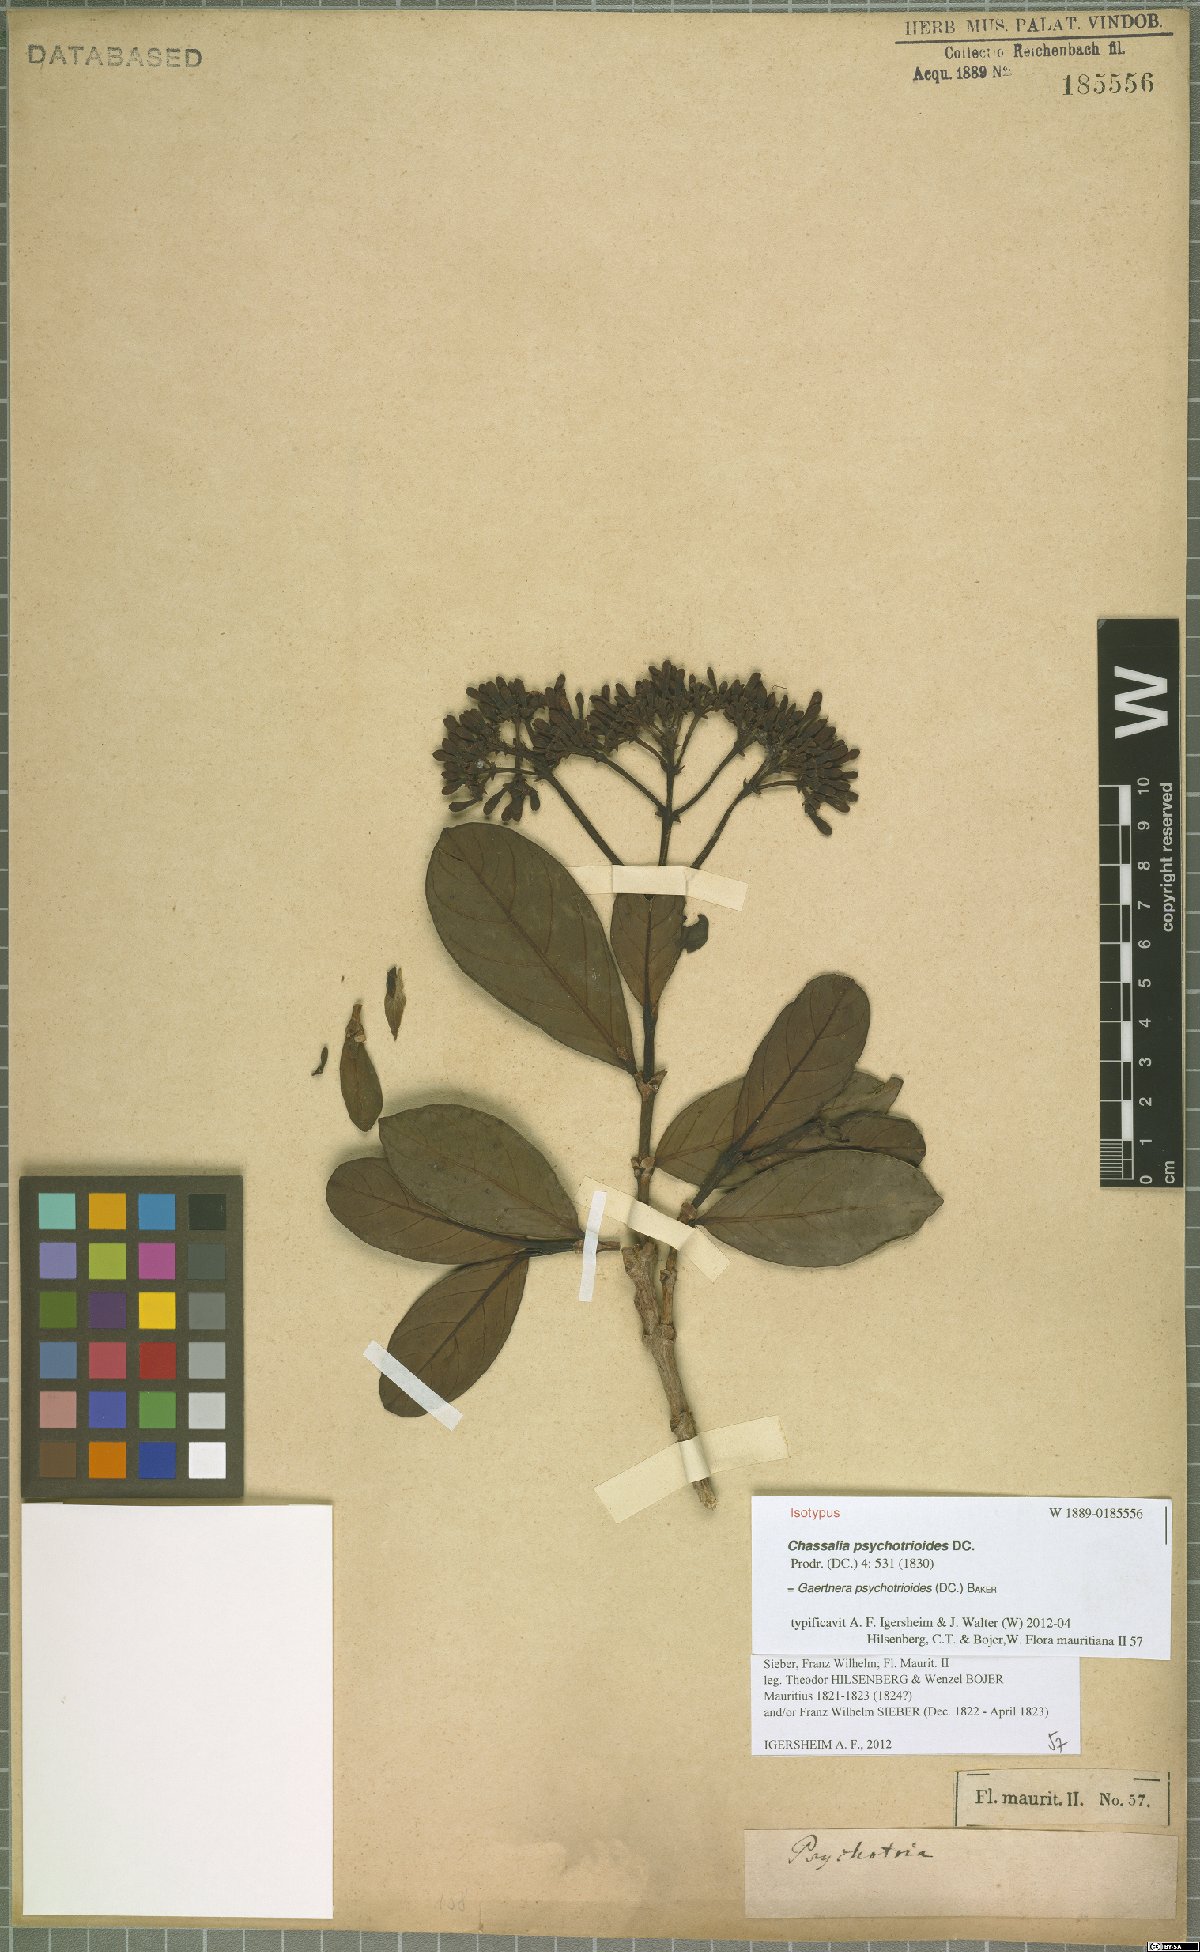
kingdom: Plantae
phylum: Tracheophyta
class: Magnoliopsida
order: Gentianales
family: Rubiaceae
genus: Gaertnera
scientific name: Gaertnera psychotrioides
